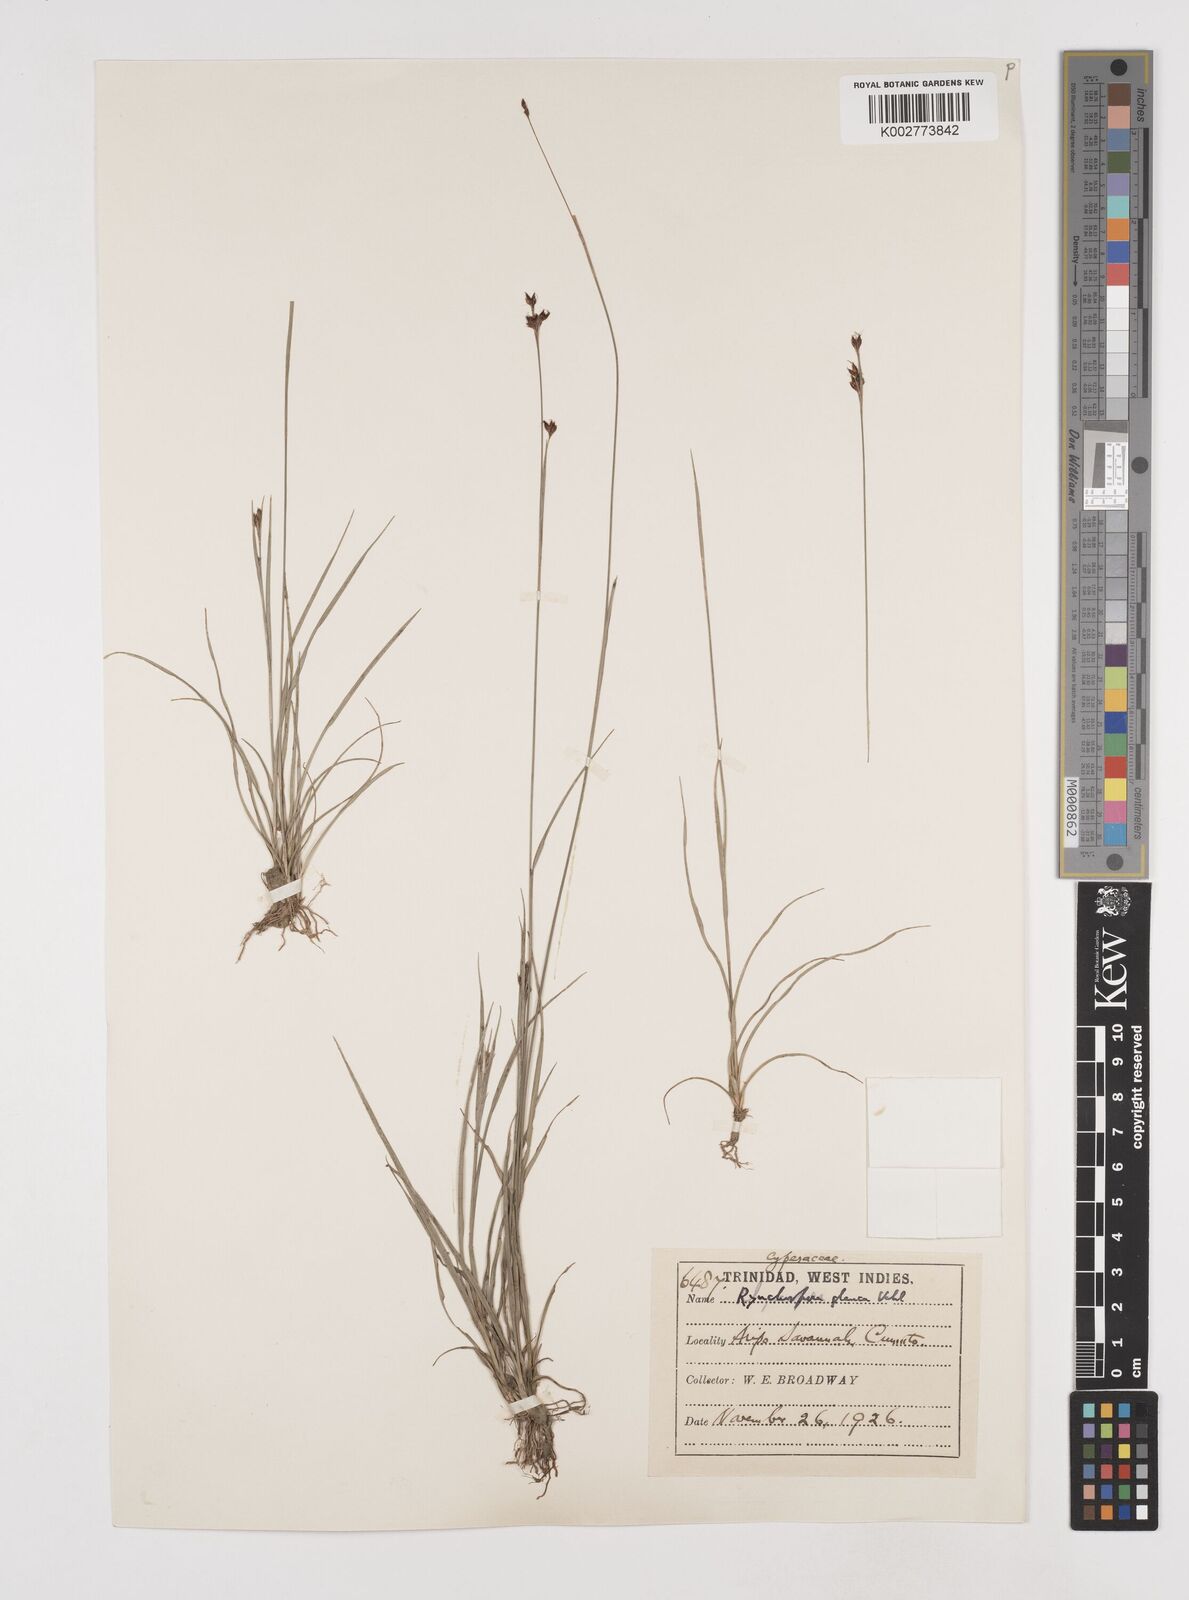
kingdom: Plantae
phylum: Tracheophyta
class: Liliopsida
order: Poales
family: Cyperaceae
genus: Rhynchospora
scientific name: Rhynchospora rugosa
